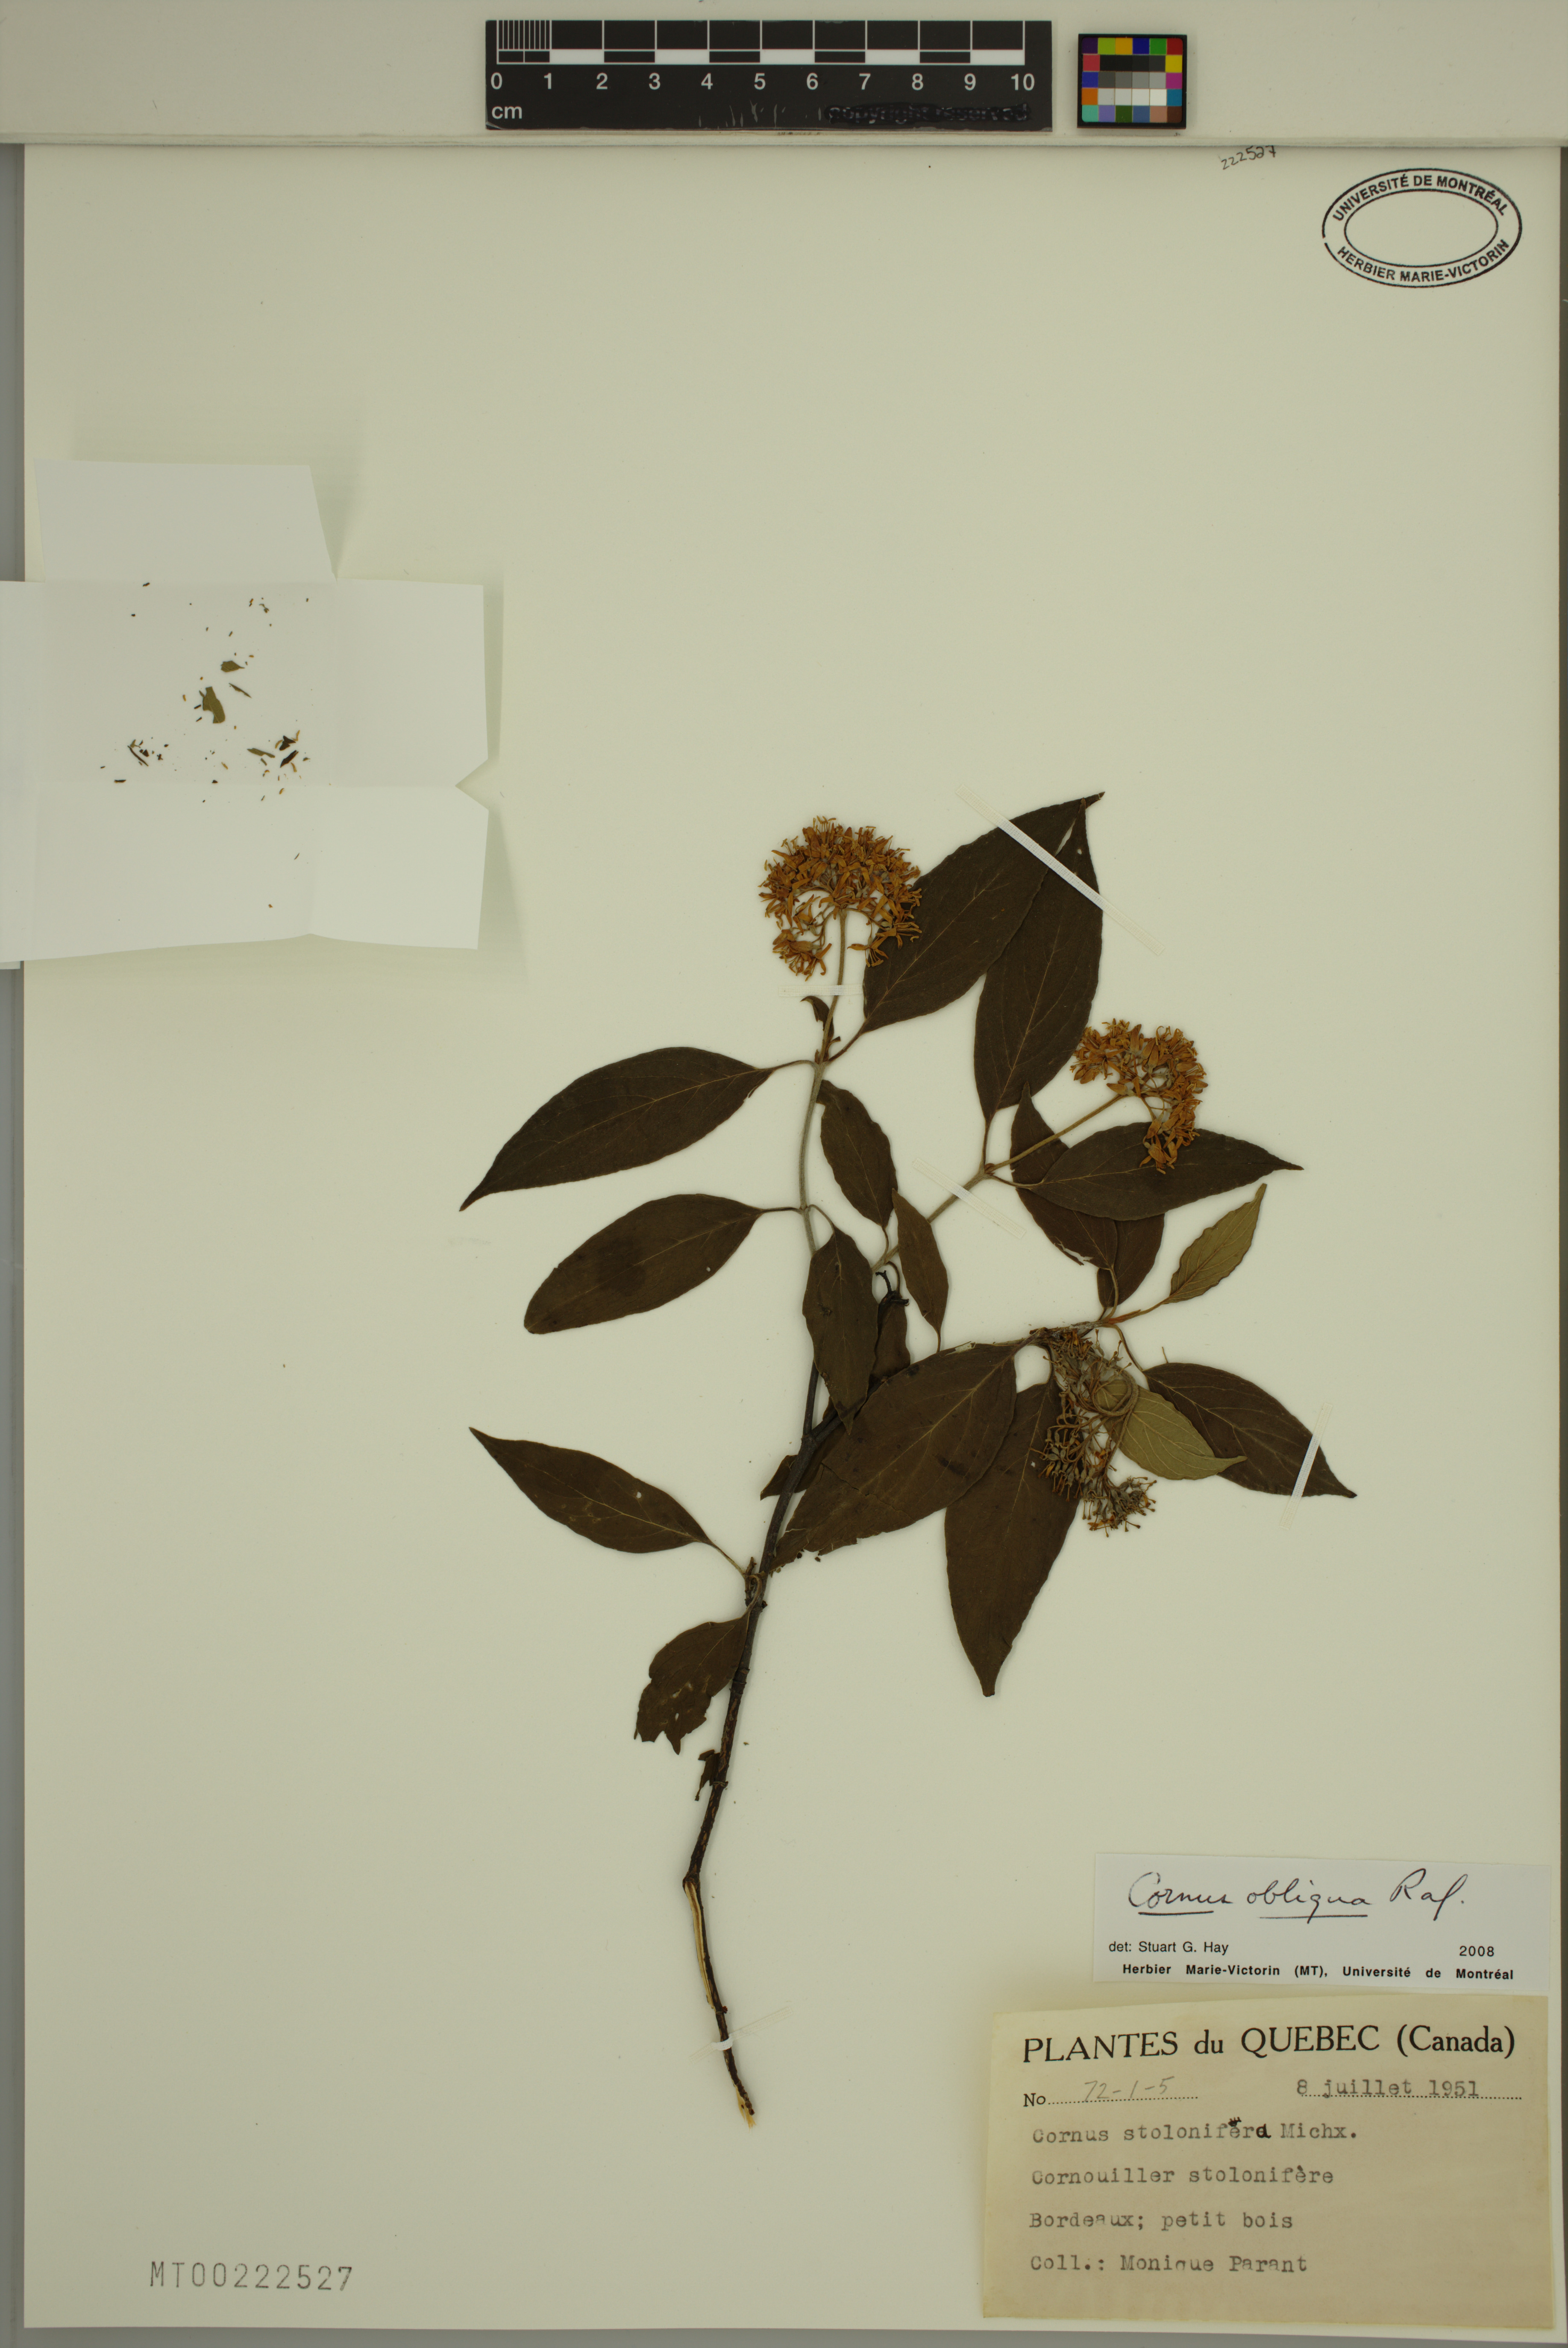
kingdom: Plantae
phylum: Tracheophyta
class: Magnoliopsida
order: Cornales
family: Cornaceae
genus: Cornus
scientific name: Cornus obliqua
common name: Pale dogwood
